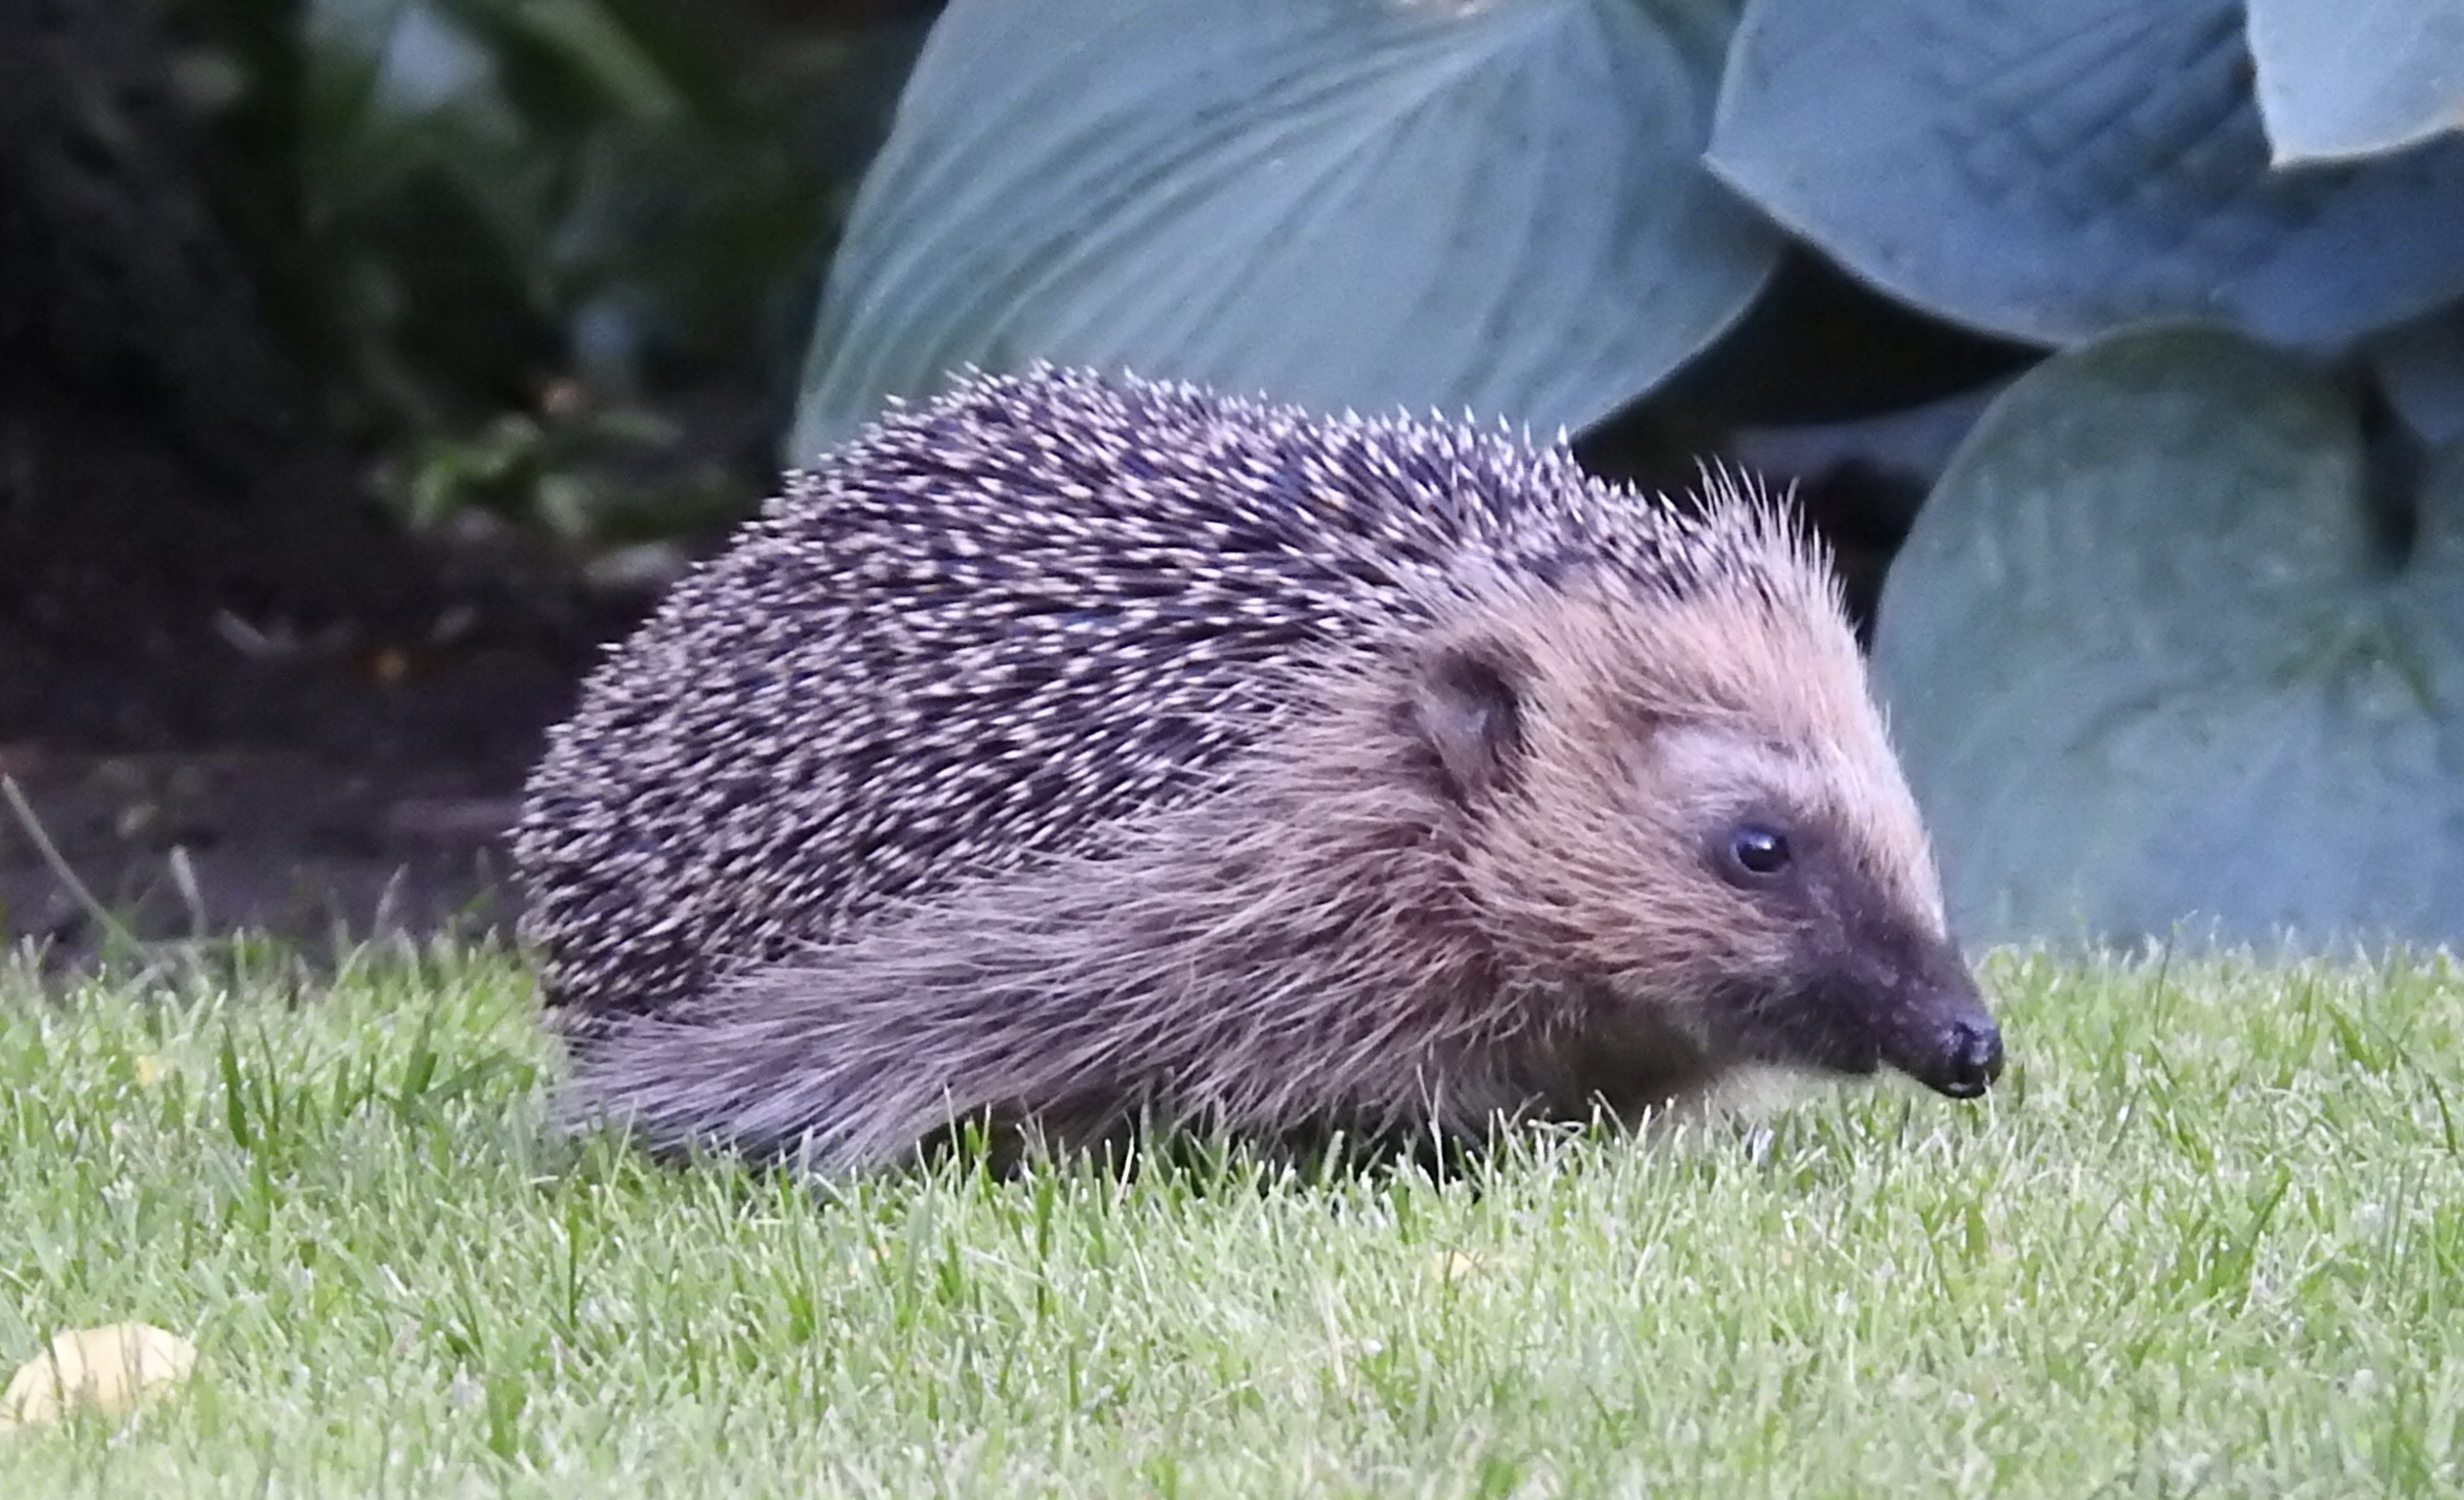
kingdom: Animalia
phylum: Chordata
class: Mammalia
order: Erinaceomorpha
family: Erinaceidae
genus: Erinaceus
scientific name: Erinaceus europaeus
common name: Pindsvin
